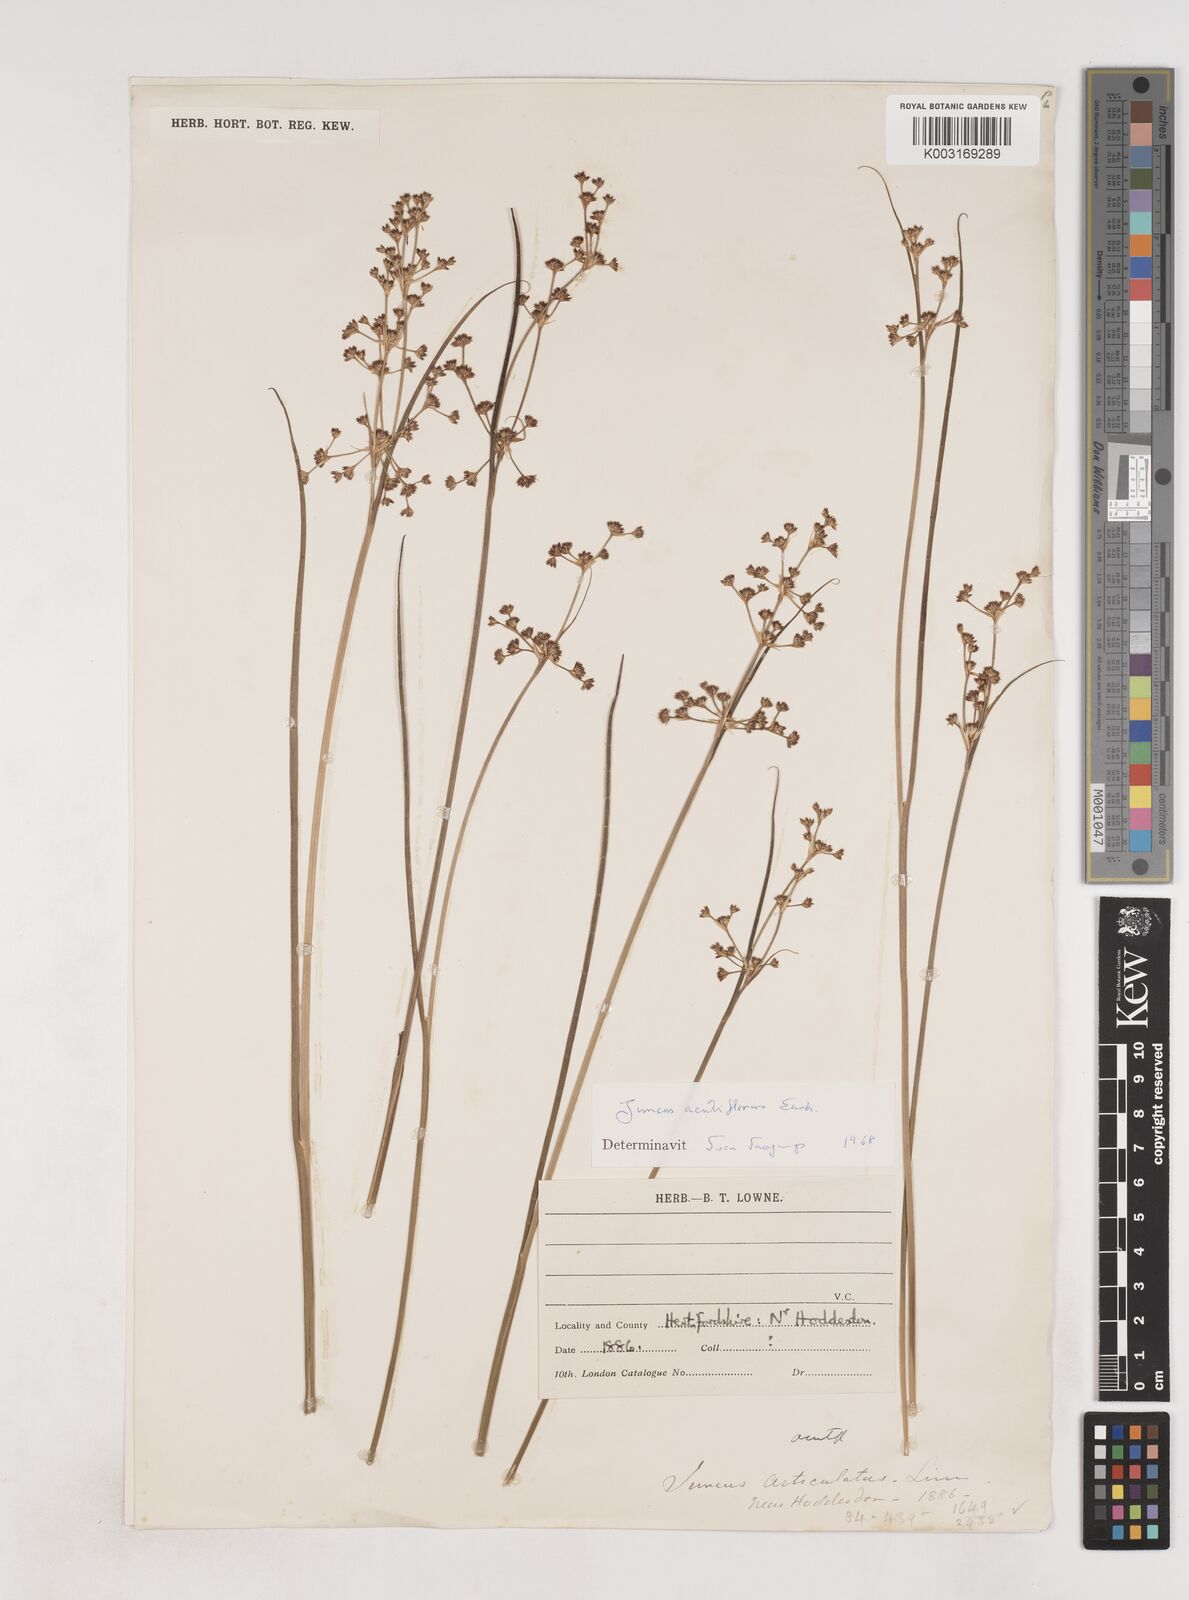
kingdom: Plantae
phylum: Tracheophyta
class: Liliopsida
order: Poales
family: Juncaceae
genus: Juncus
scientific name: Juncus acutiflorus
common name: Sharp-flowered rush
